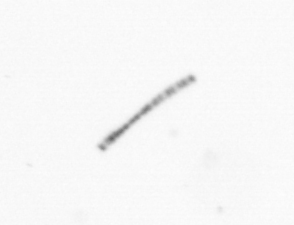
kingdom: Chromista
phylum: Ochrophyta
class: Bacillariophyceae
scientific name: Bacillariophyceae
